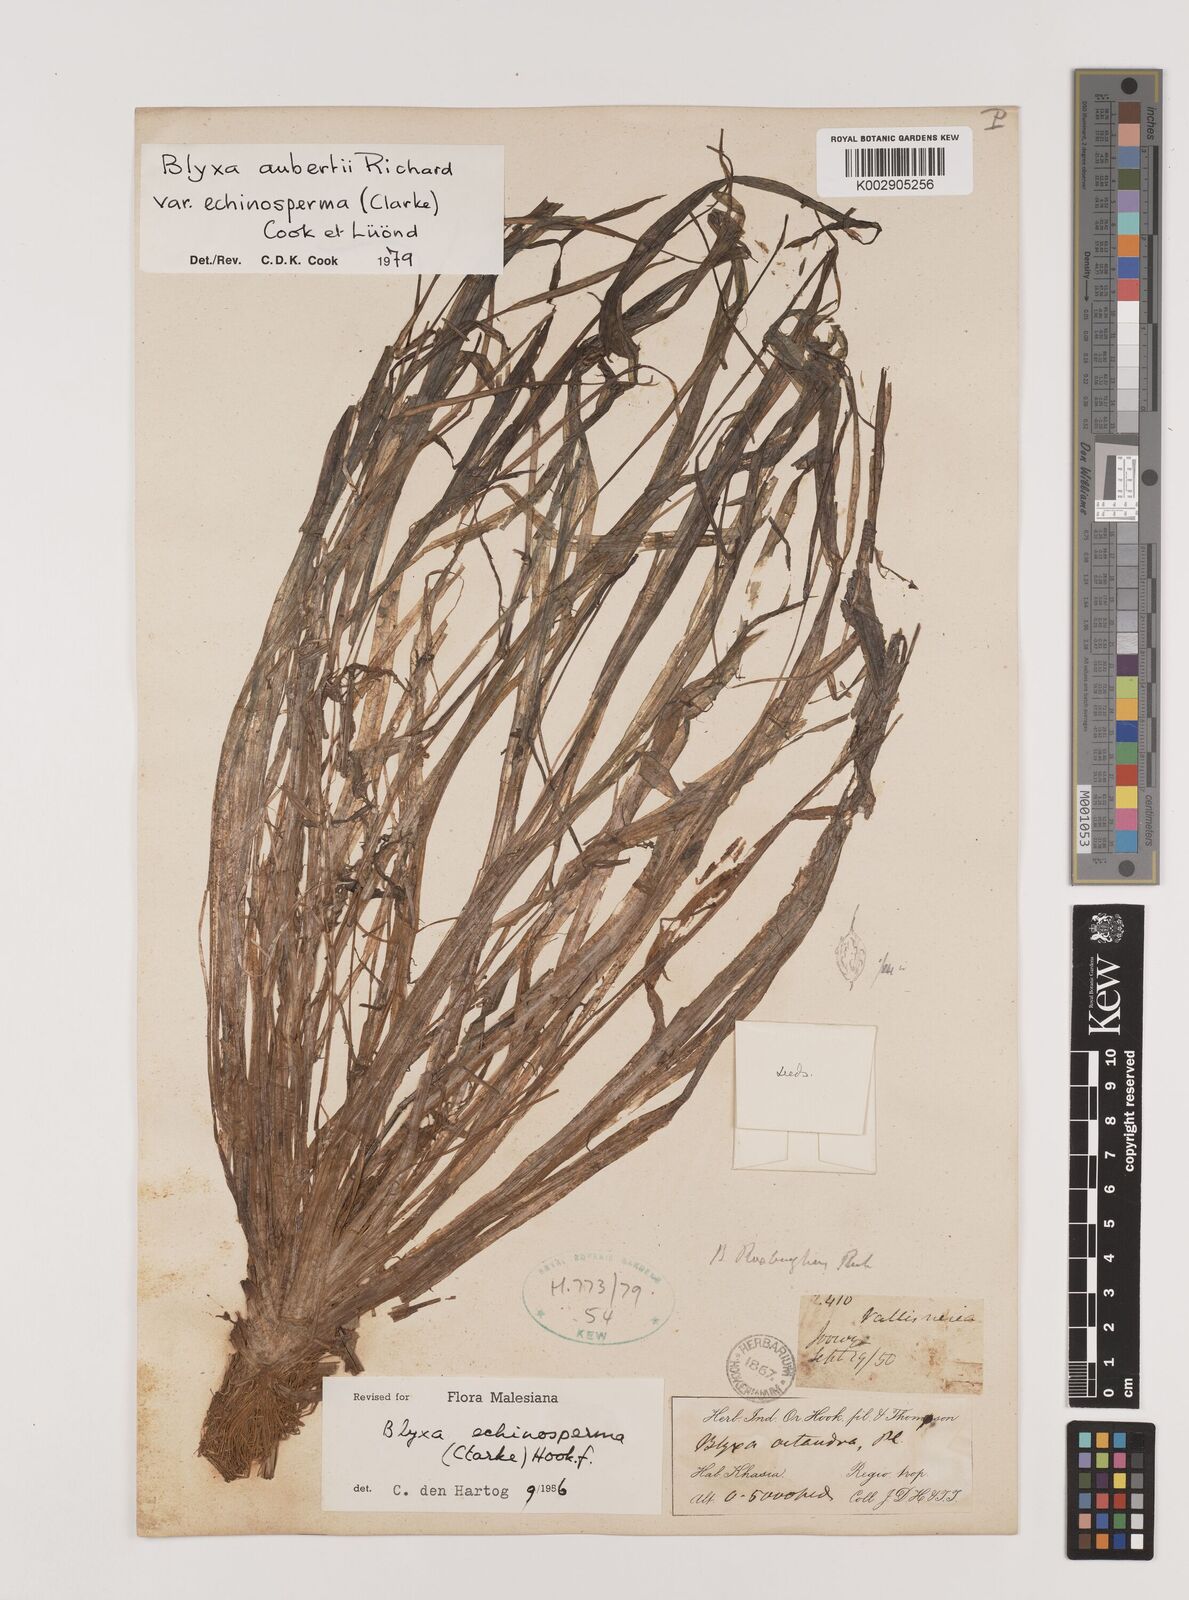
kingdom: Plantae
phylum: Tracheophyta
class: Liliopsida
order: Alismatales
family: Hydrocharitaceae
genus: Blyxa
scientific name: Blyxa echinosperma
